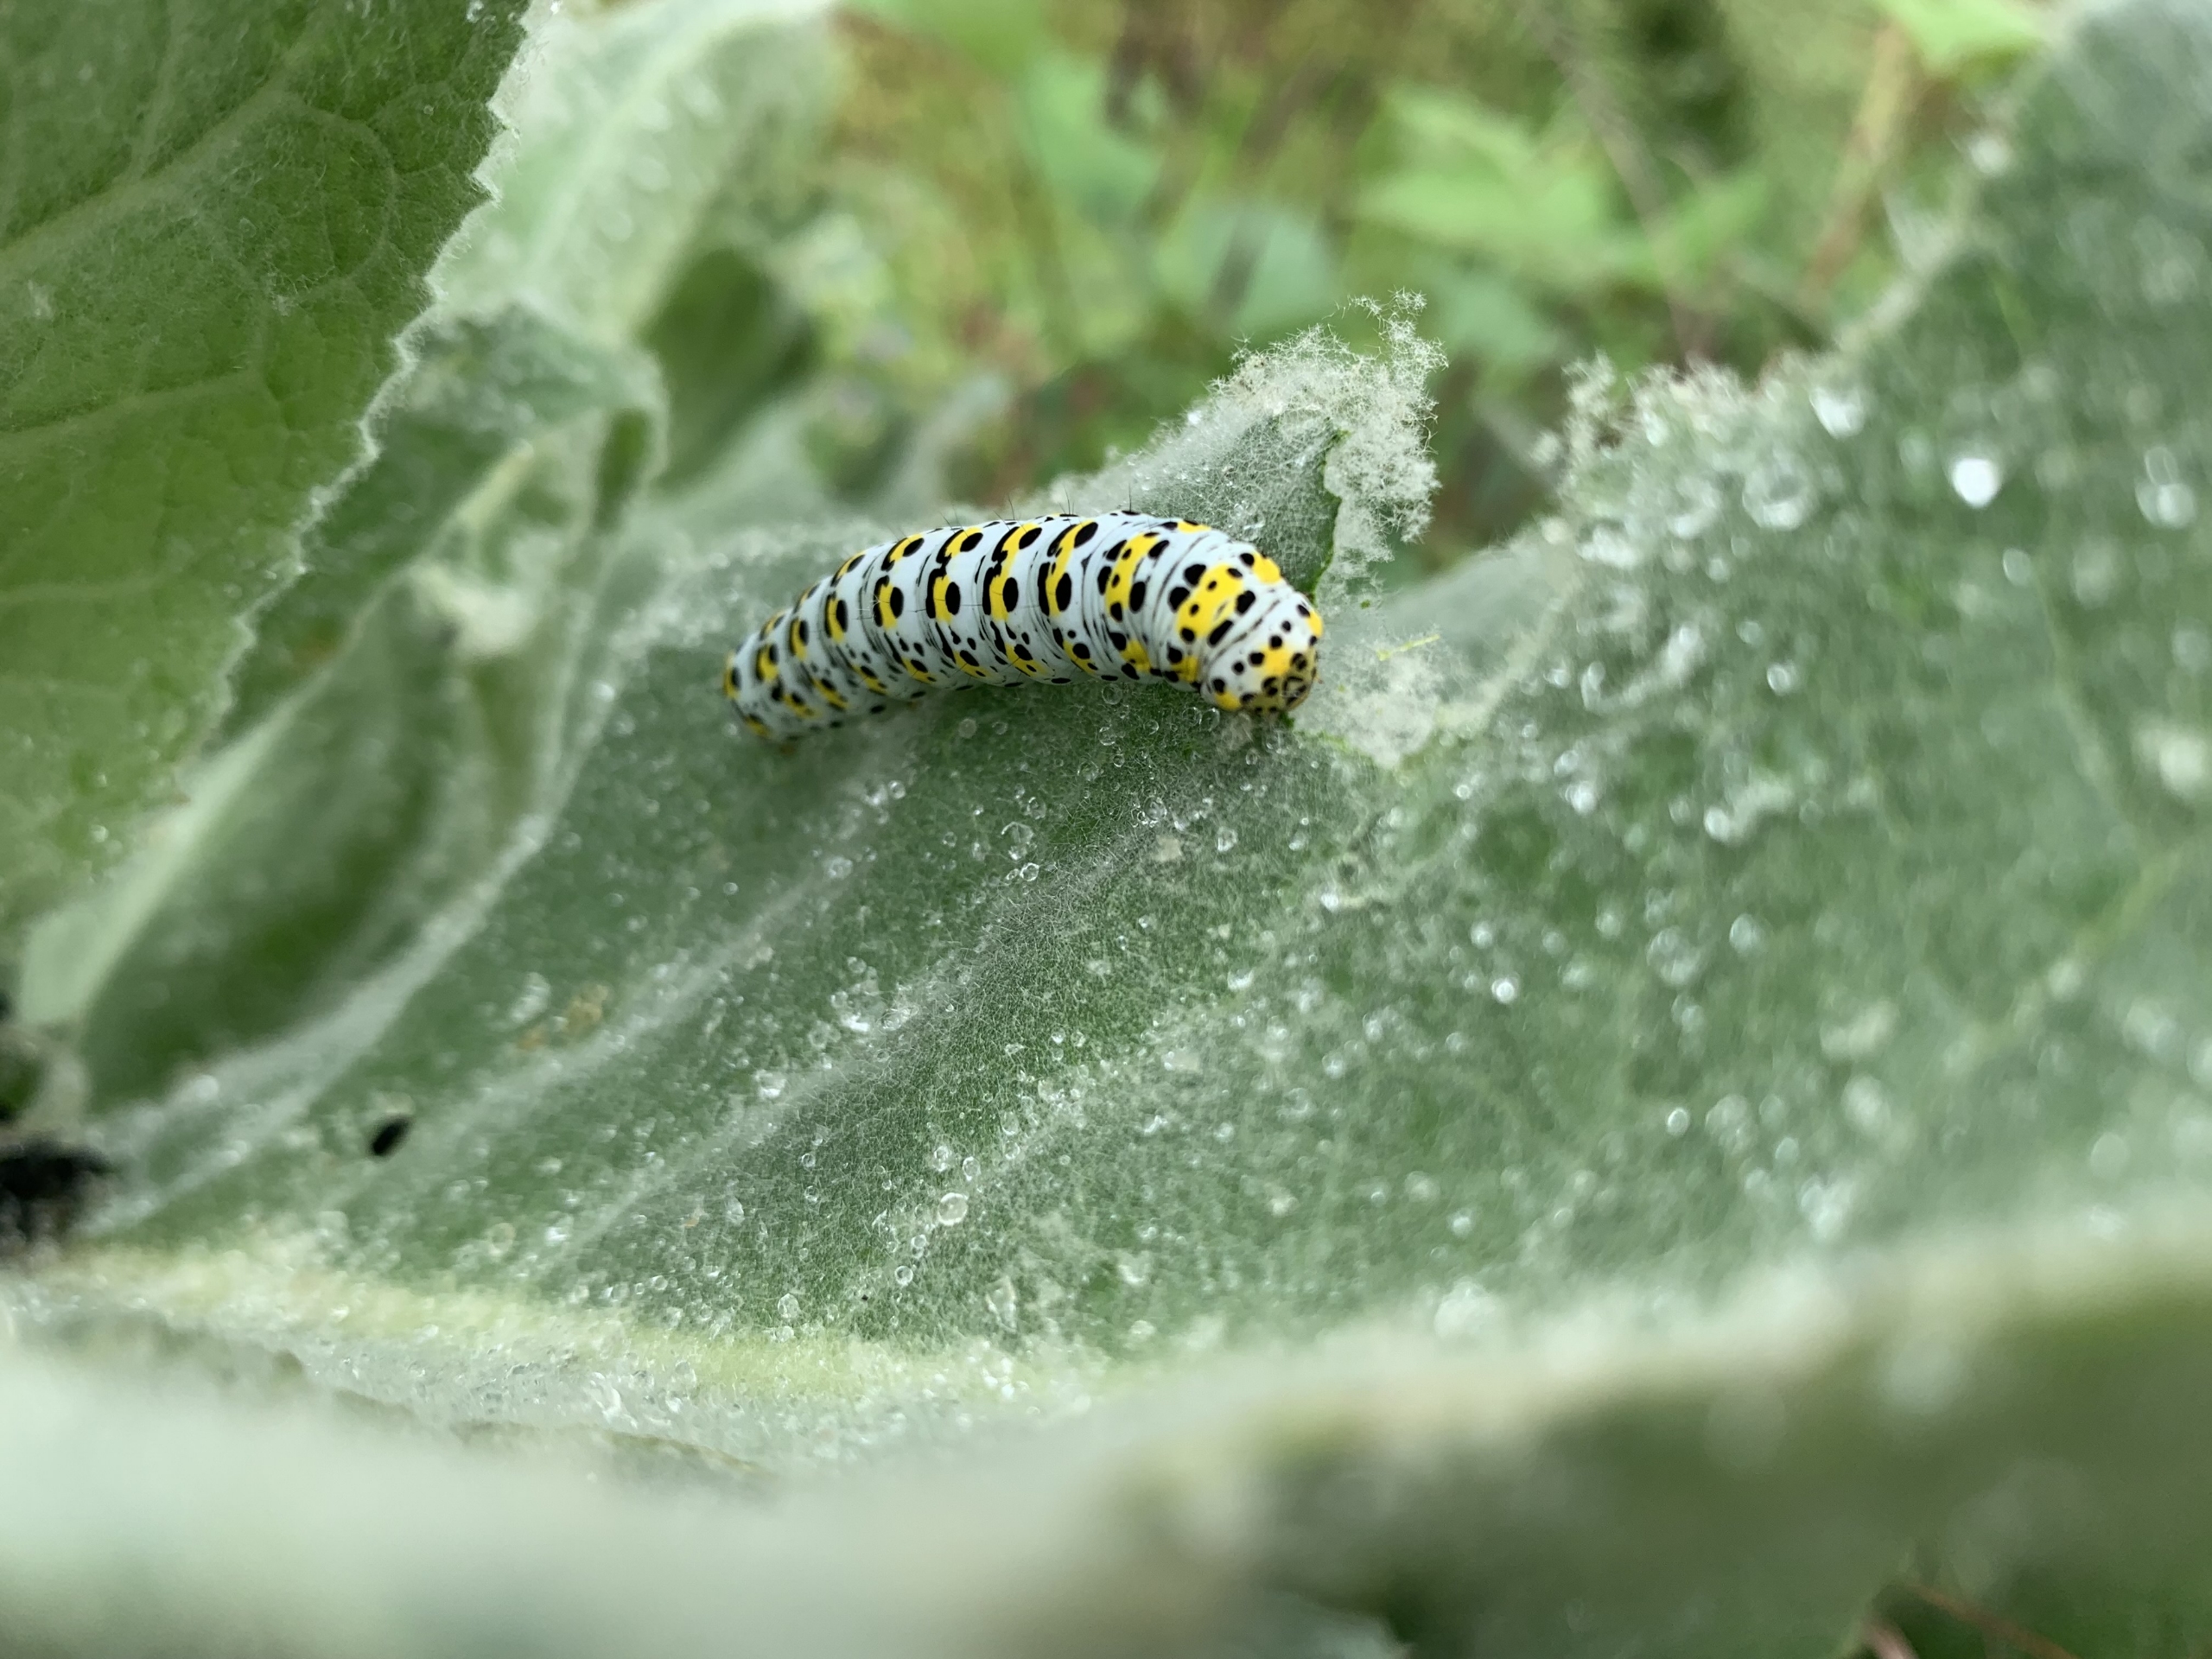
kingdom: Animalia
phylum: Arthropoda
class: Insecta
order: Lepidoptera
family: Noctuidae
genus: Cucullia
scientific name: Cucullia verbasci
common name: Filtbladet kongelys-hætteugle
